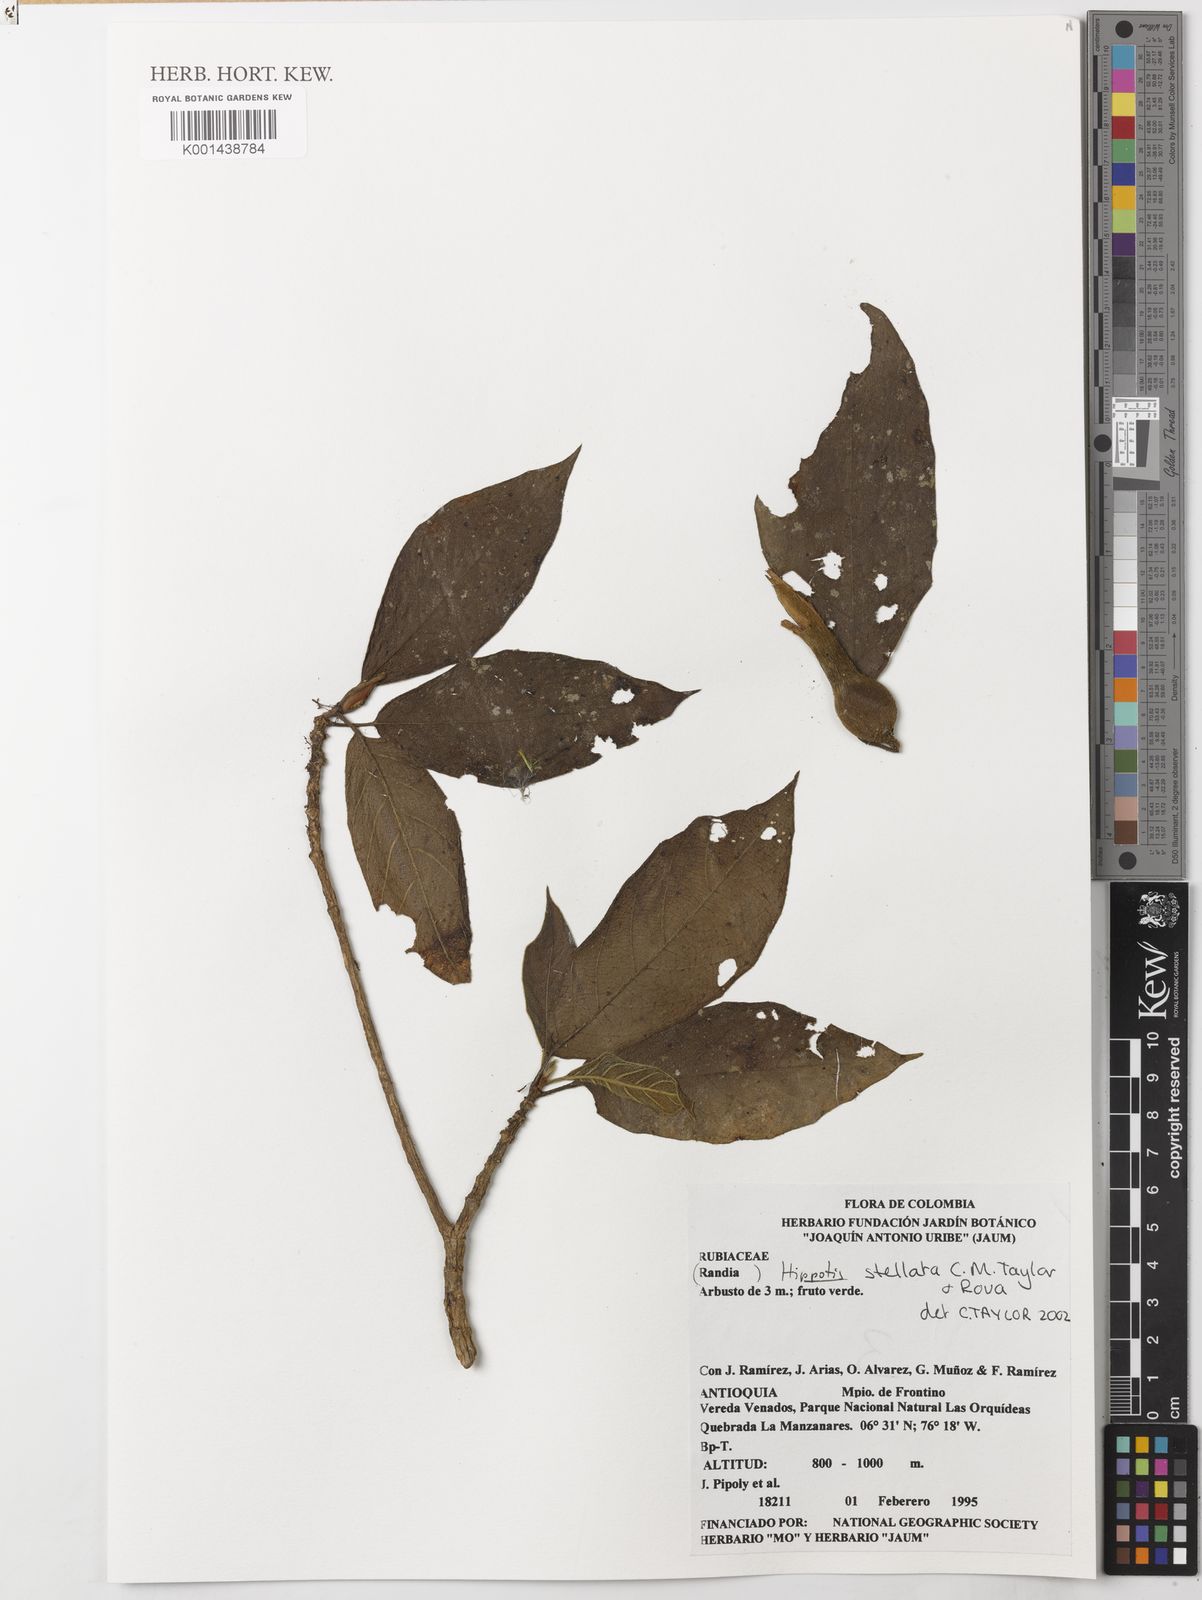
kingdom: Plantae
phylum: Tracheophyta
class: Magnoliopsida
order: Gentianales
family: Rubiaceae
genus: Hippotis
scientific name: Hippotis stellata
